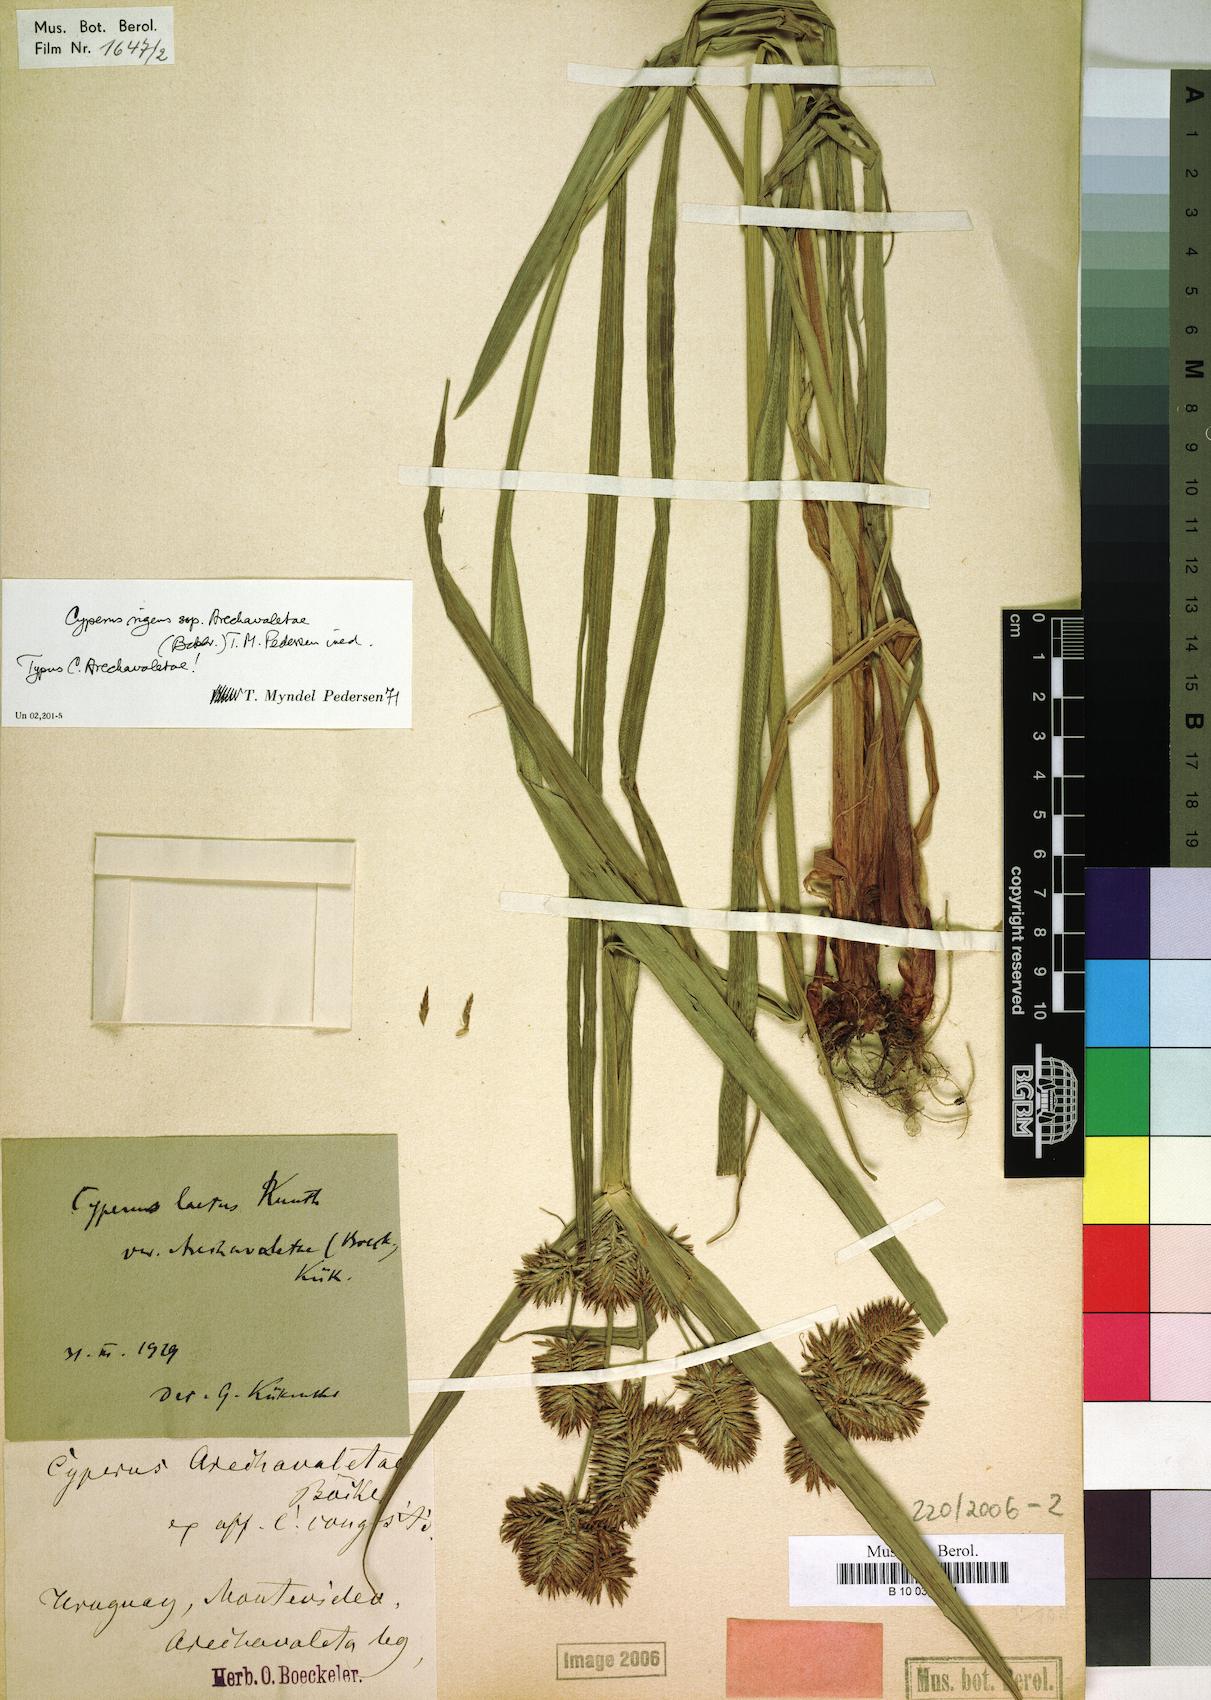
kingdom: Plantae
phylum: Tracheophyta
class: Liliopsida
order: Poales
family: Cyperaceae
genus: Cyperus
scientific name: Cyperus laetus
